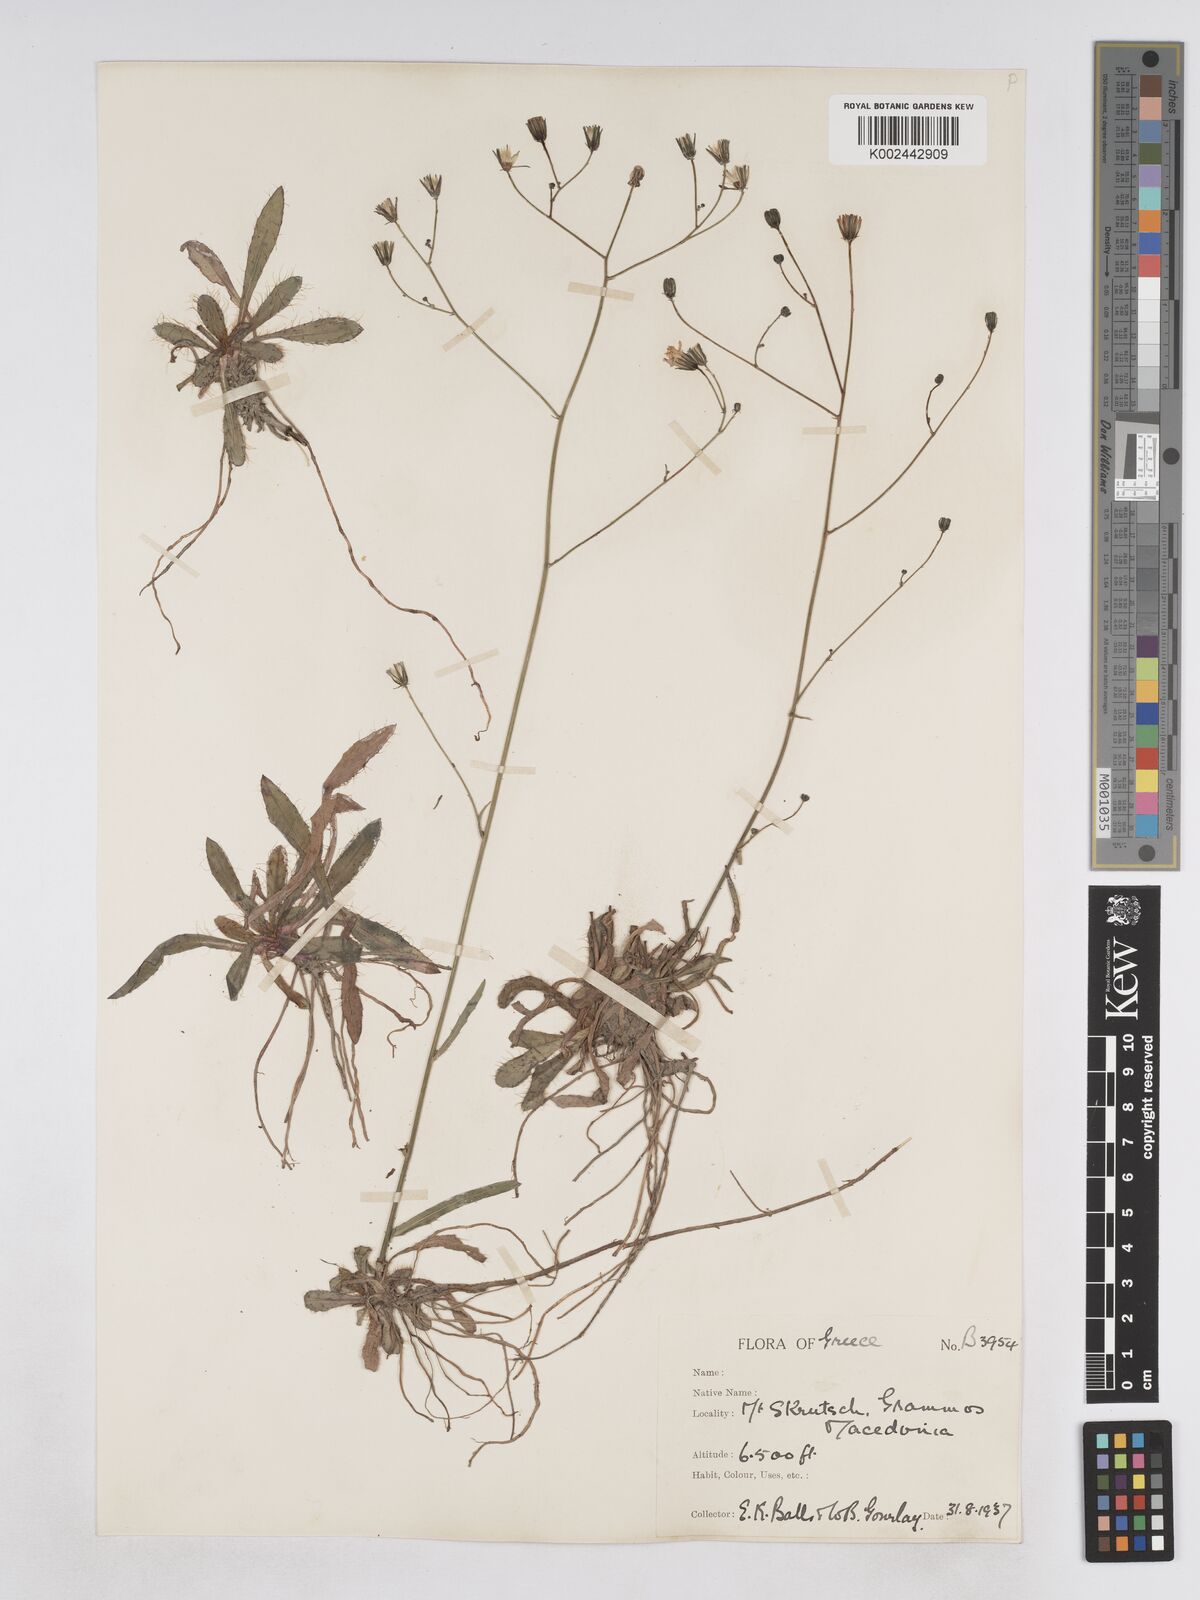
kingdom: Plantae
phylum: Tracheophyta
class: Magnoliopsida
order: Asterales
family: Asteraceae
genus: Pilosella
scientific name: Pilosella pavichii
